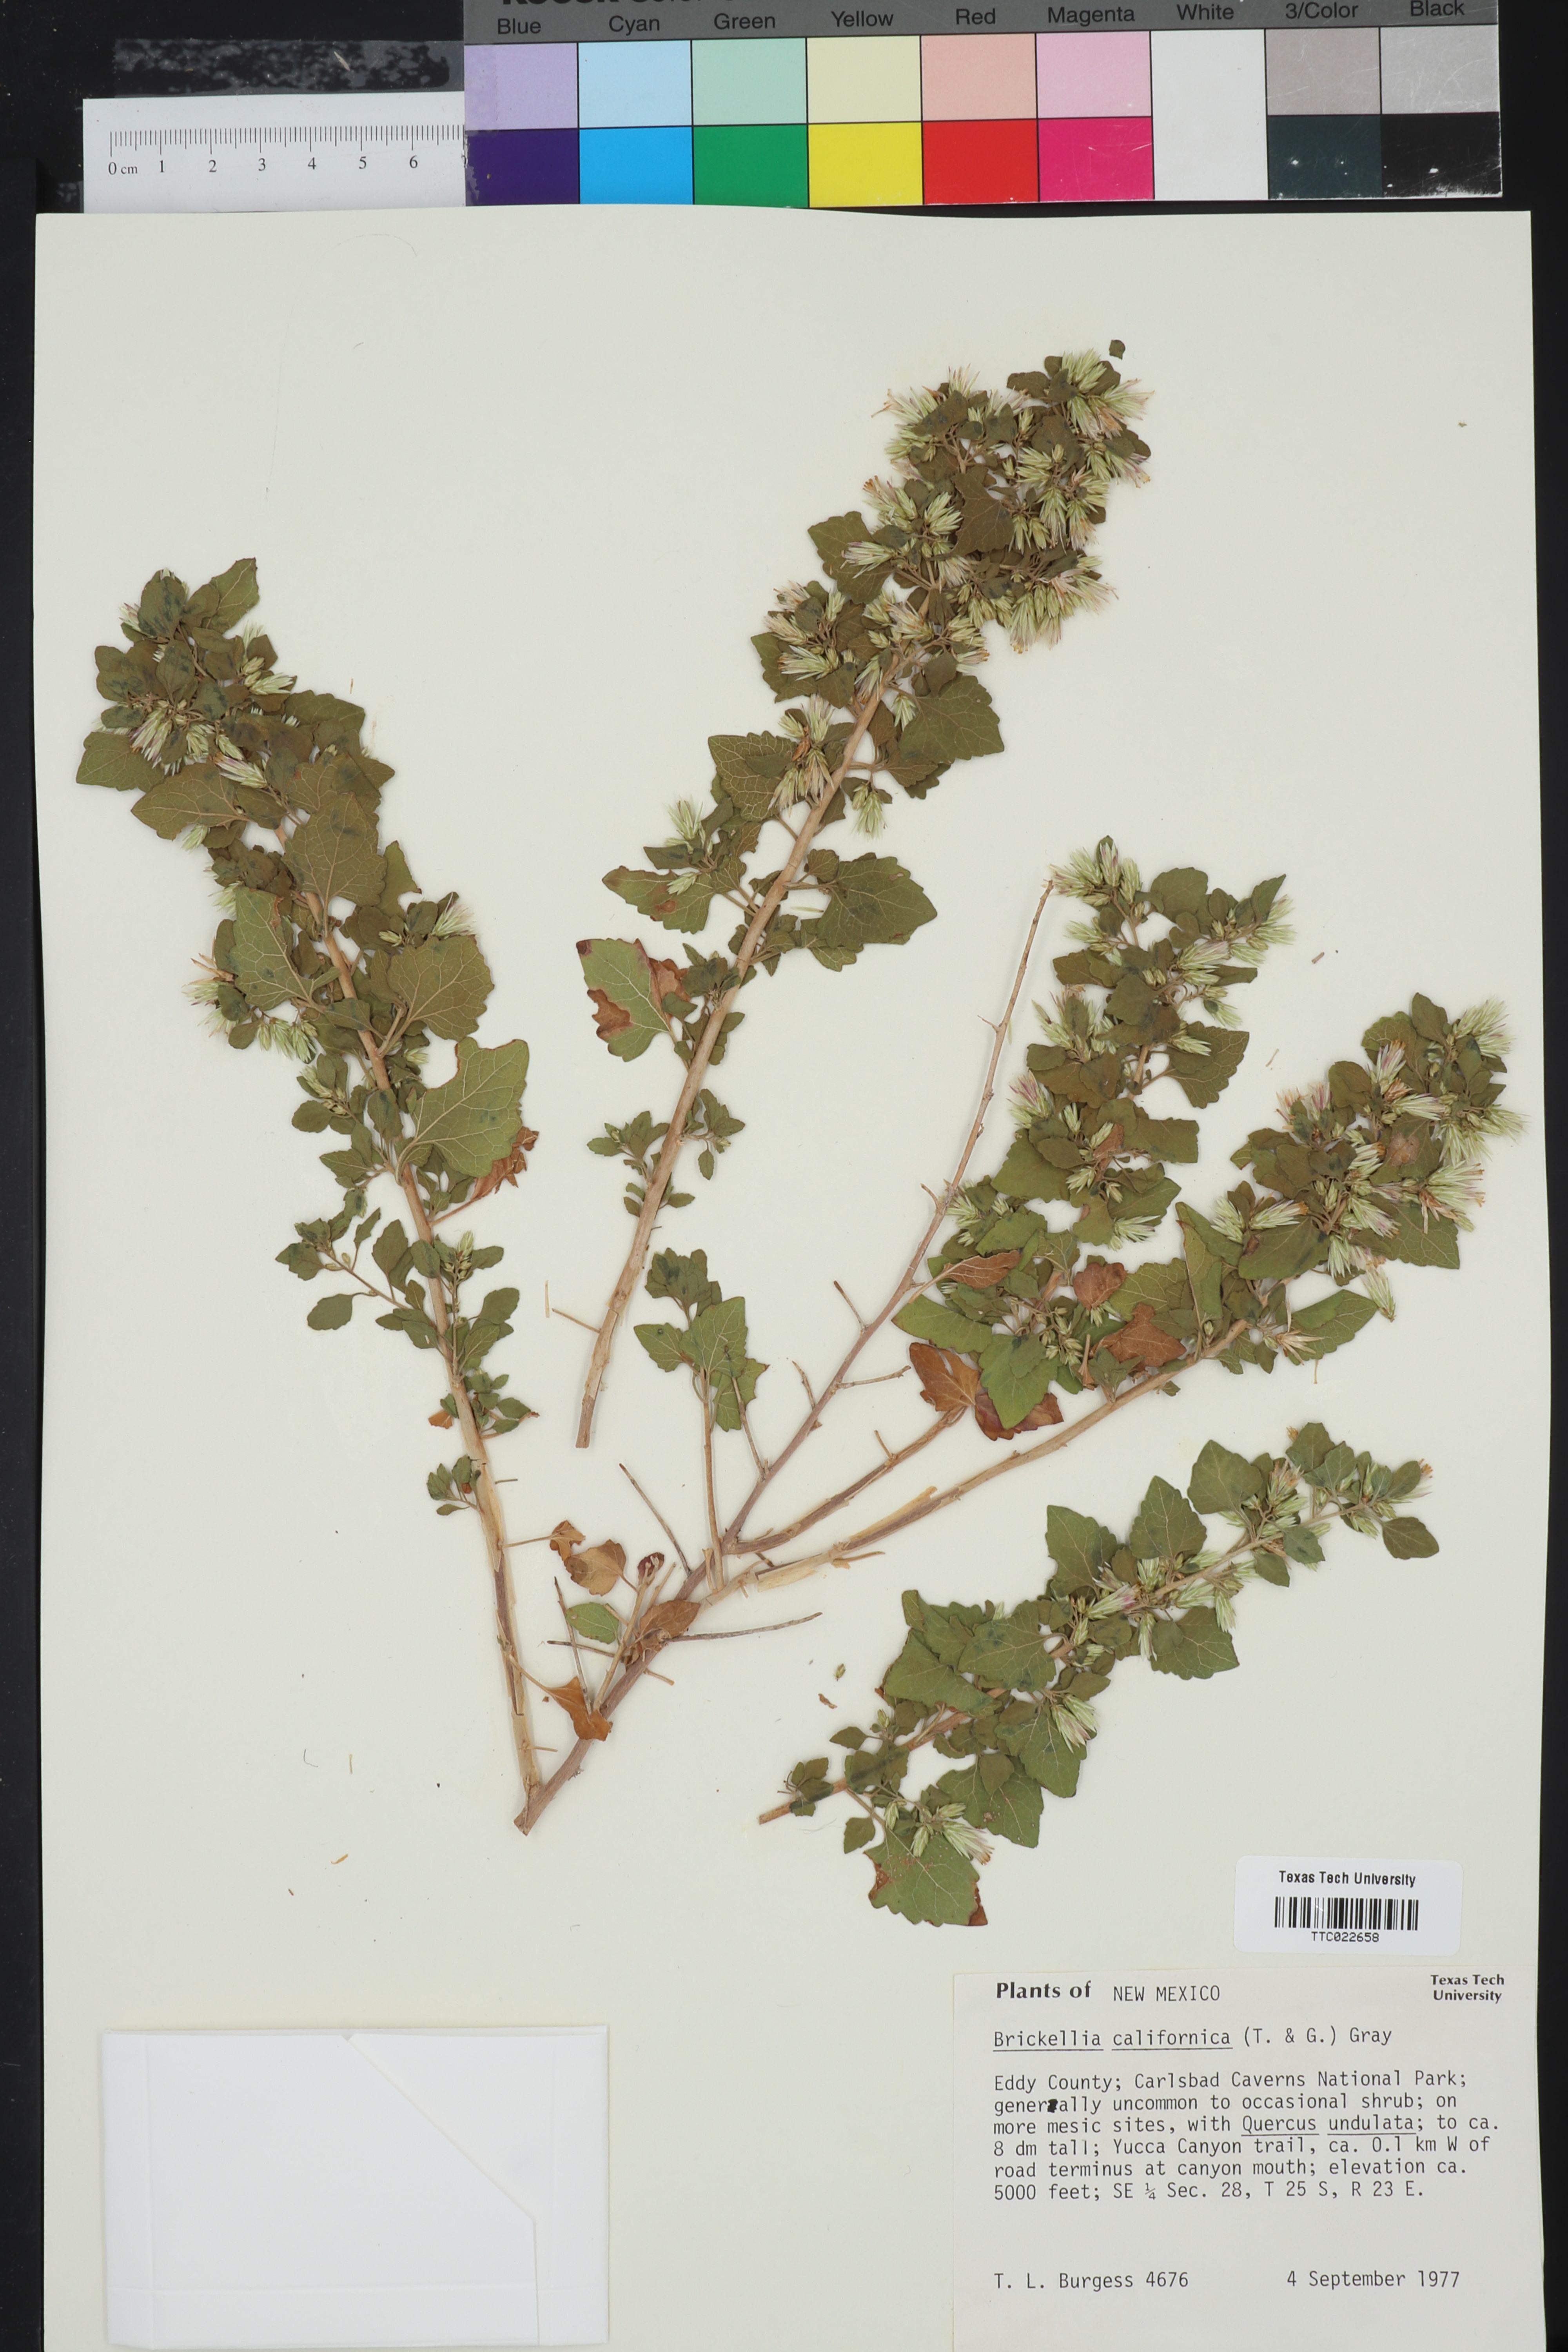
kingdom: Plantae
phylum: Tracheophyta
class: Magnoliopsida
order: Asterales
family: Asteraceae
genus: Brickellia
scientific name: Brickellia californica
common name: California brickellbush
